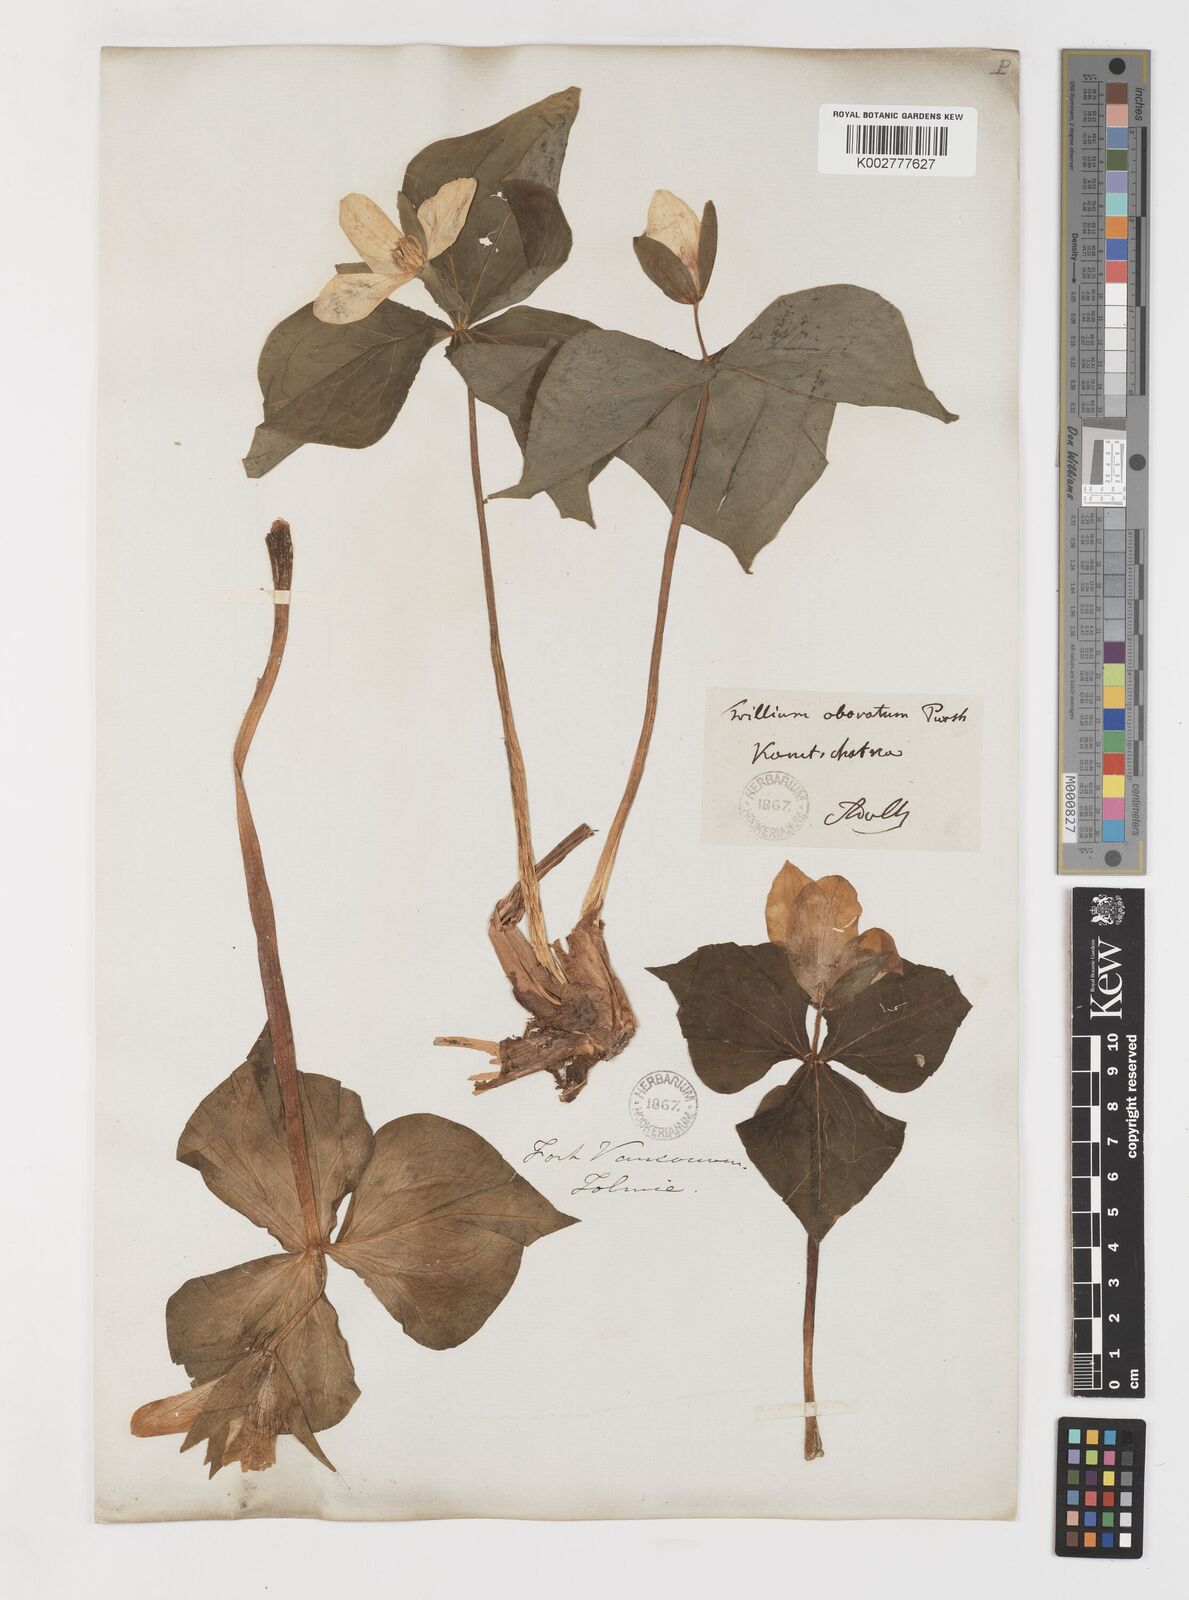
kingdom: Plantae
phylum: Tracheophyta
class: Liliopsida
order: Liliales
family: Melanthiaceae
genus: Trillium
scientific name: Trillium erectum
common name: Purple trillium
